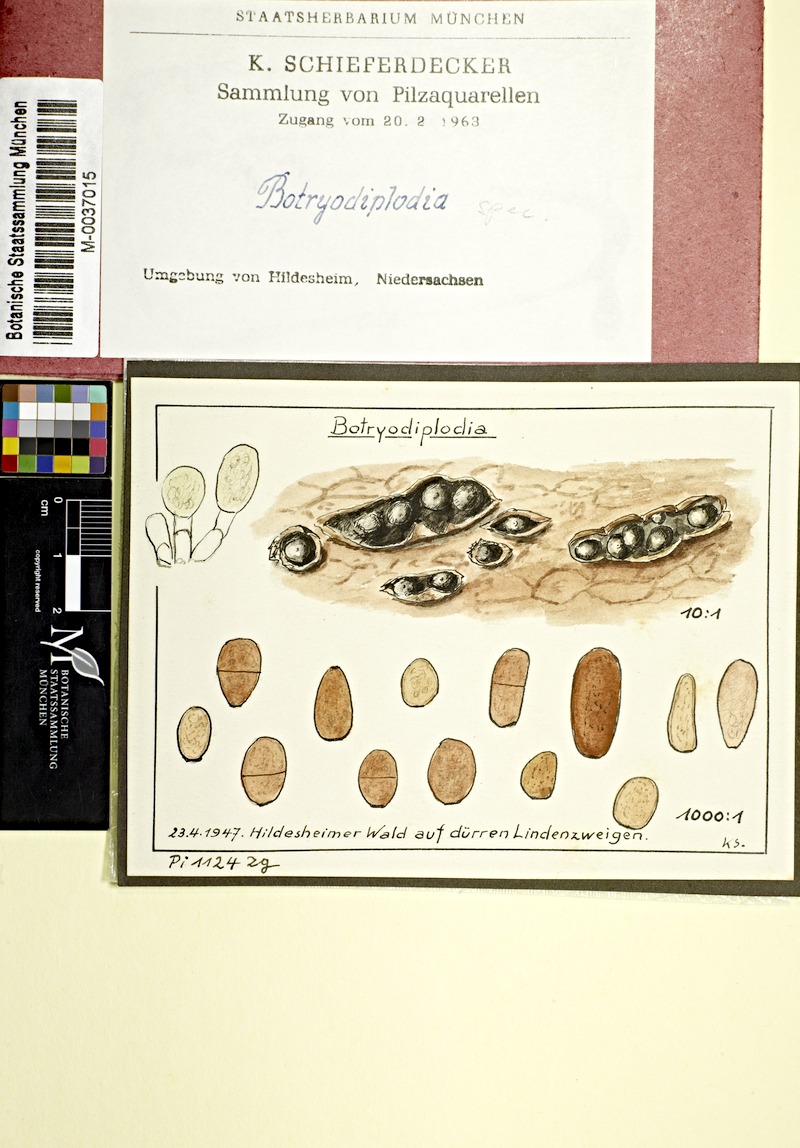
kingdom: Plantae
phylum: Tracheophyta
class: Magnoliopsida
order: Malvales
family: Malvaceae
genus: Tilia
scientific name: Tilia
